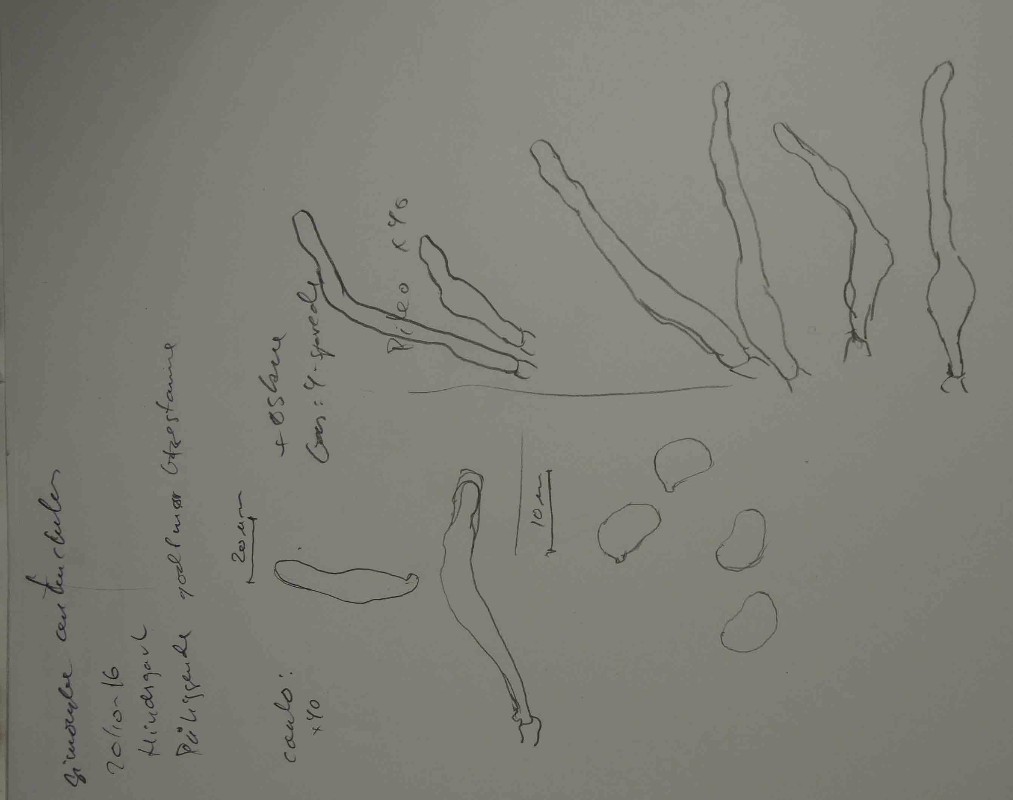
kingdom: Fungi
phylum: Basidiomycota
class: Agaricomycetes
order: Agaricales
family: Crepidotaceae
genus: Simocybe
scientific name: Simocybe centunculus
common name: enlig skyggehat
